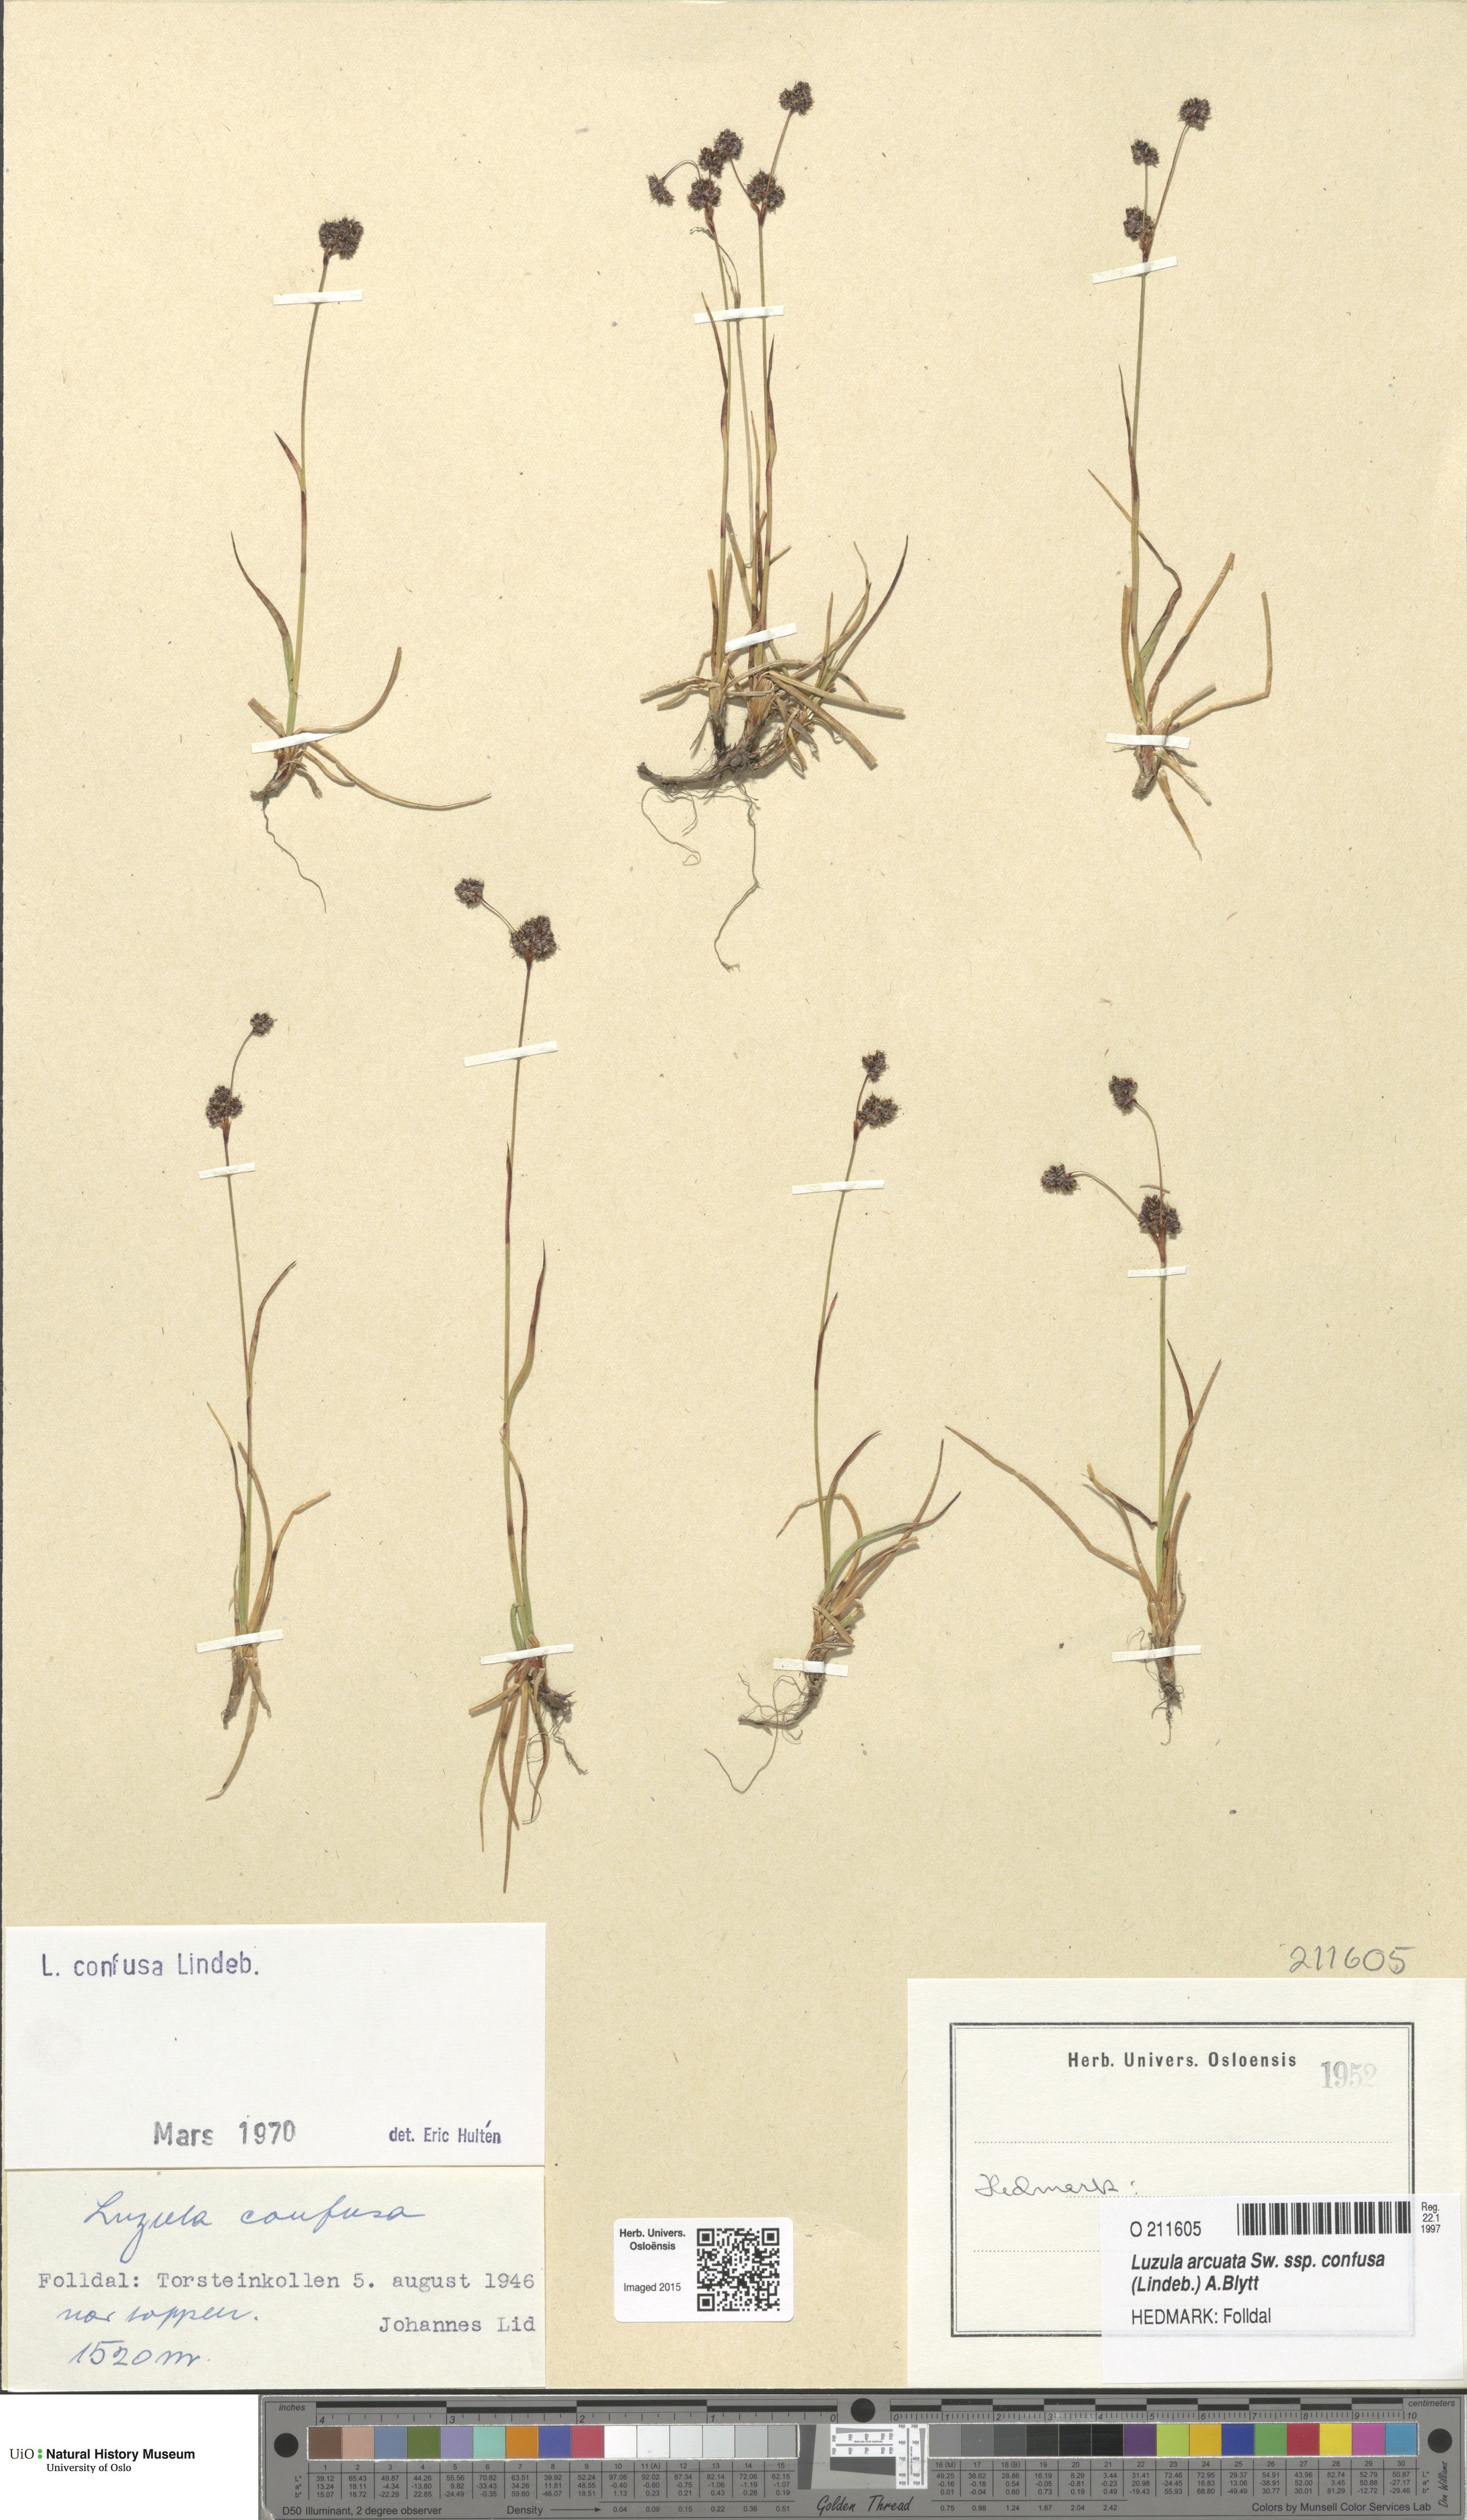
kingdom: Plantae
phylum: Tracheophyta
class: Liliopsida
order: Poales
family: Juncaceae
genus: Luzula
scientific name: Luzula confusa
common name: Northern wood rush
